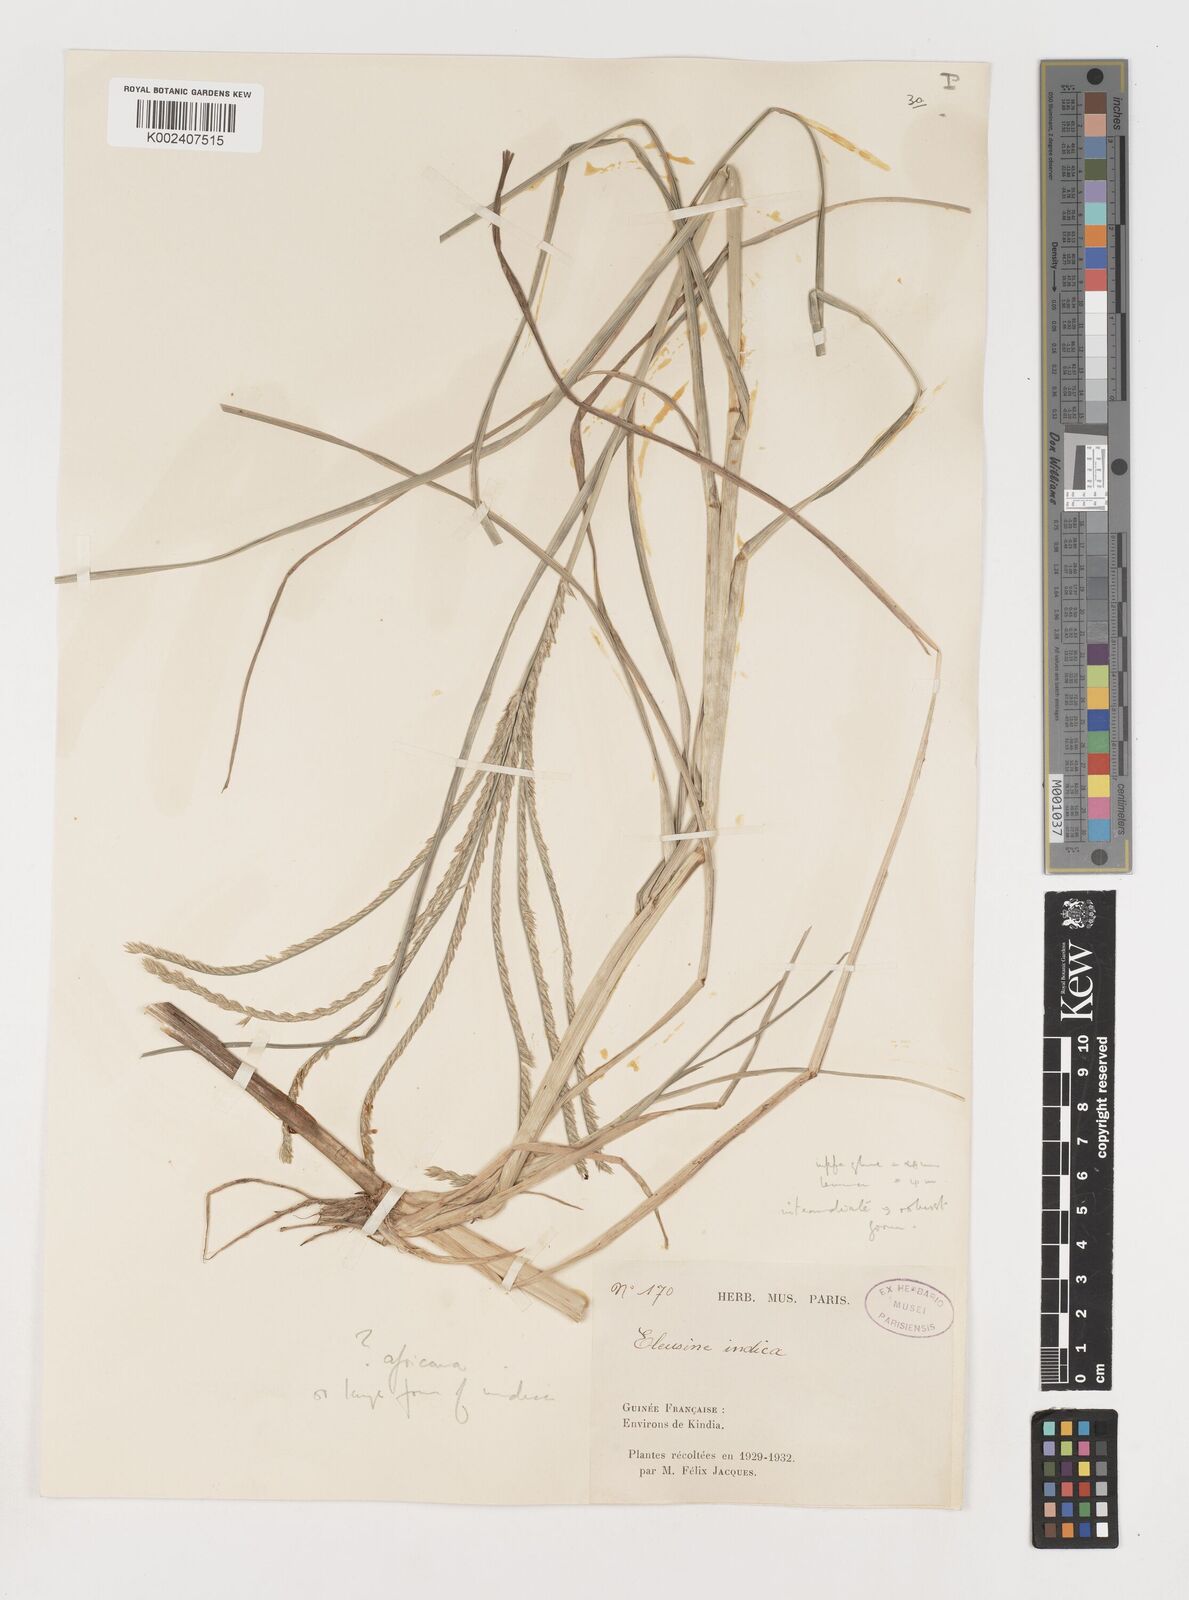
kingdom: Plantae
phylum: Tracheophyta
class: Liliopsida
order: Poales
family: Poaceae
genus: Eleusine
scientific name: Eleusine africana
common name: Wild african finger millet
